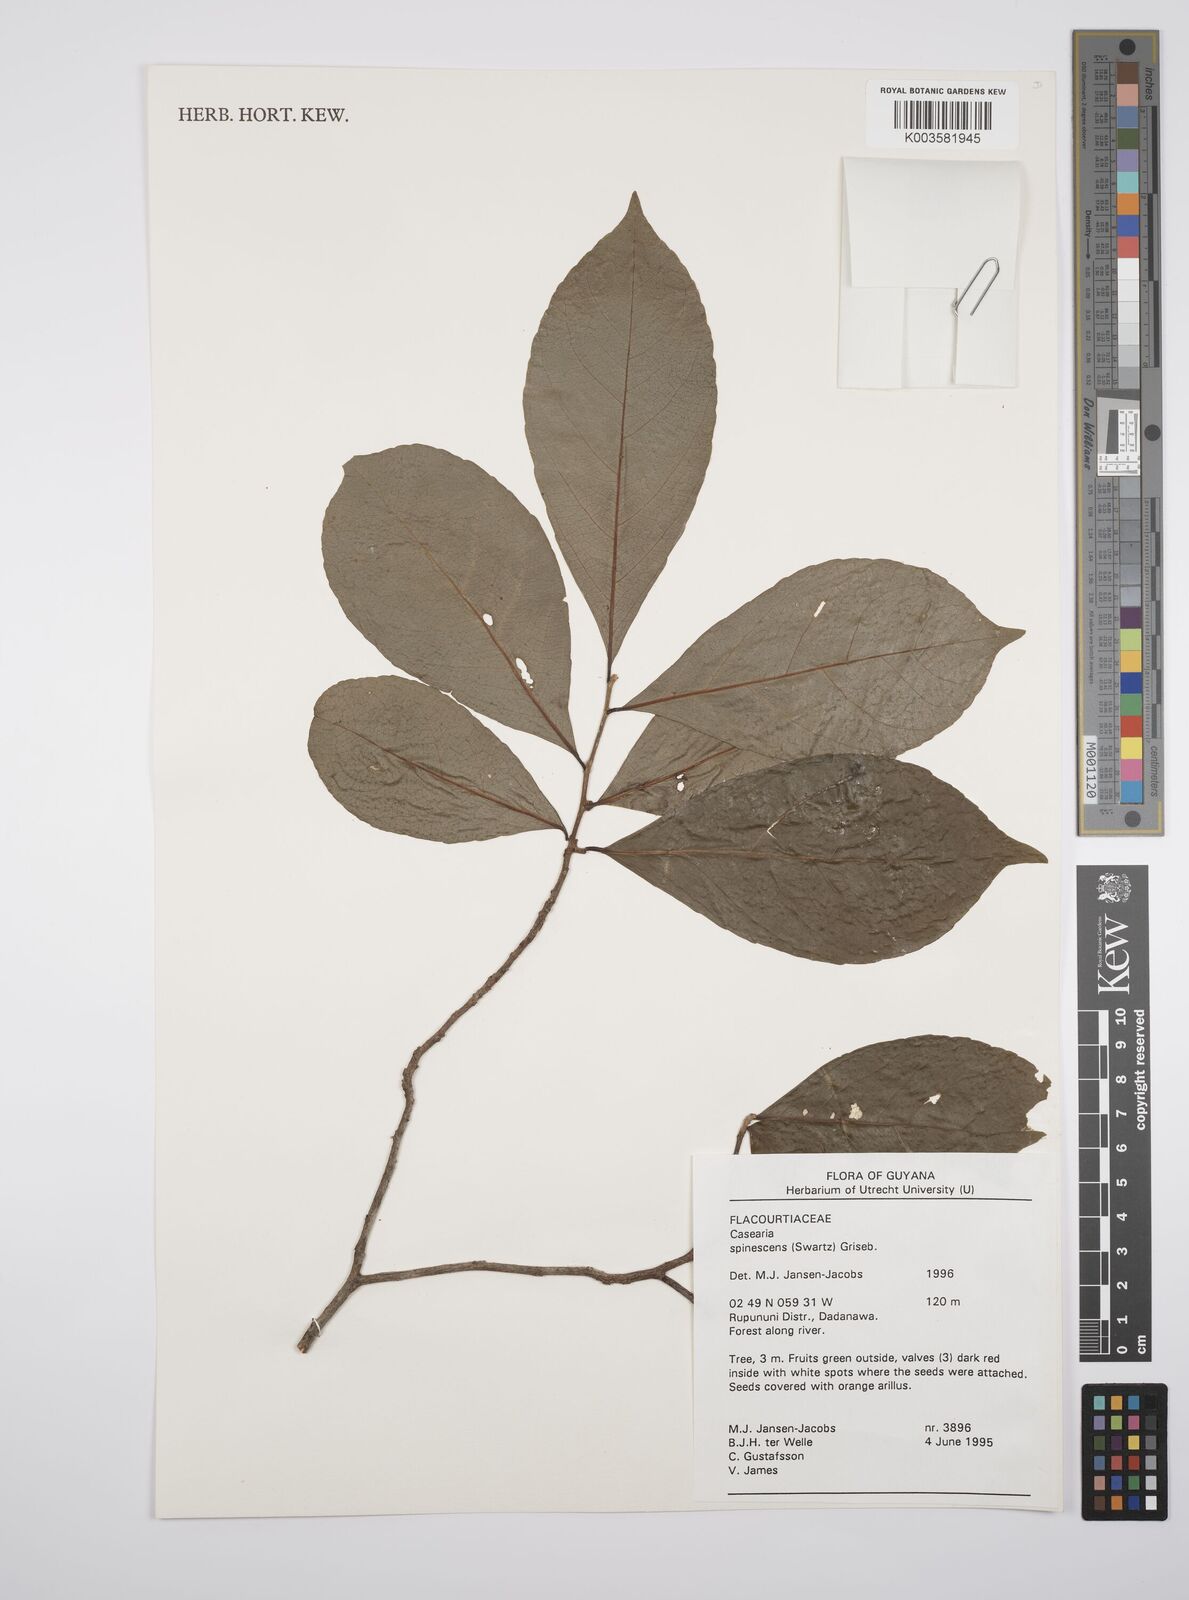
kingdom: Plantae
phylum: Tracheophyta
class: Magnoliopsida
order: Malpighiales
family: Salicaceae
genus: Casearia
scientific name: Casearia spinescens
